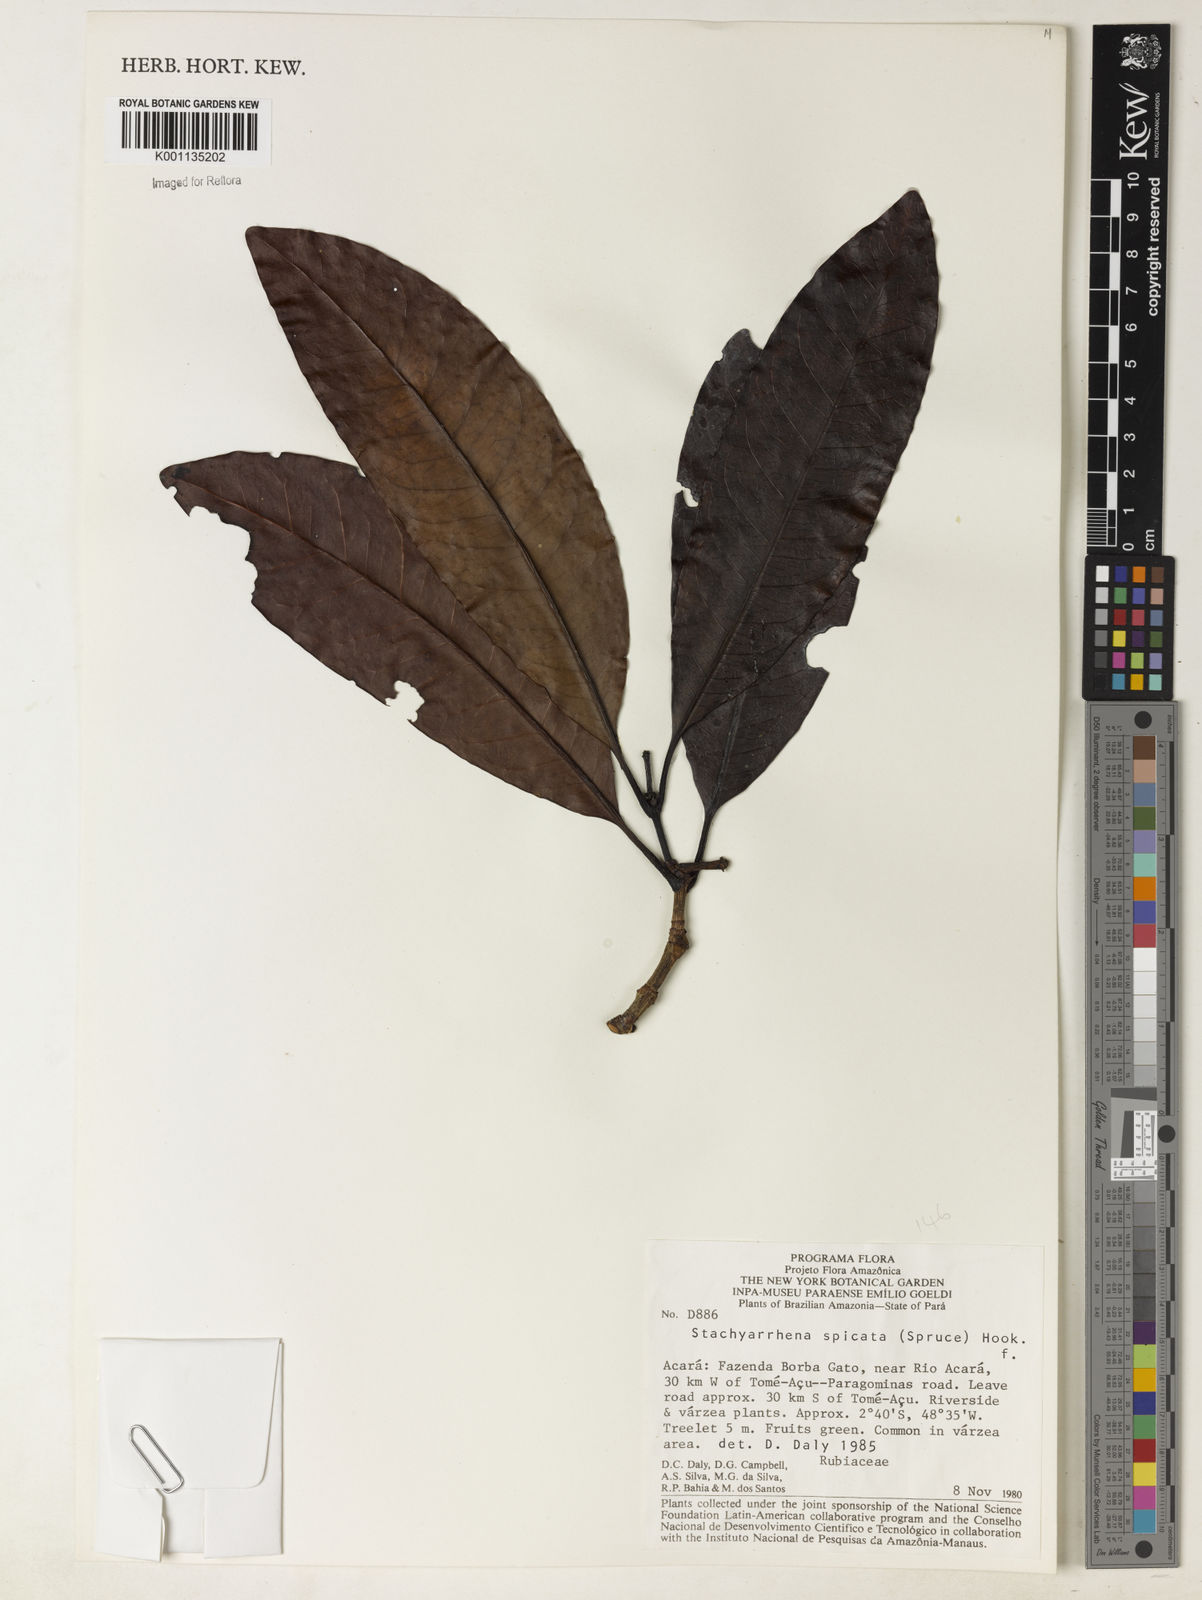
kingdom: Plantae
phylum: Tracheophyta
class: Magnoliopsida
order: Gentianales
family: Rubiaceae
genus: Stachyarrhena
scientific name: Stachyarrhena spicata
